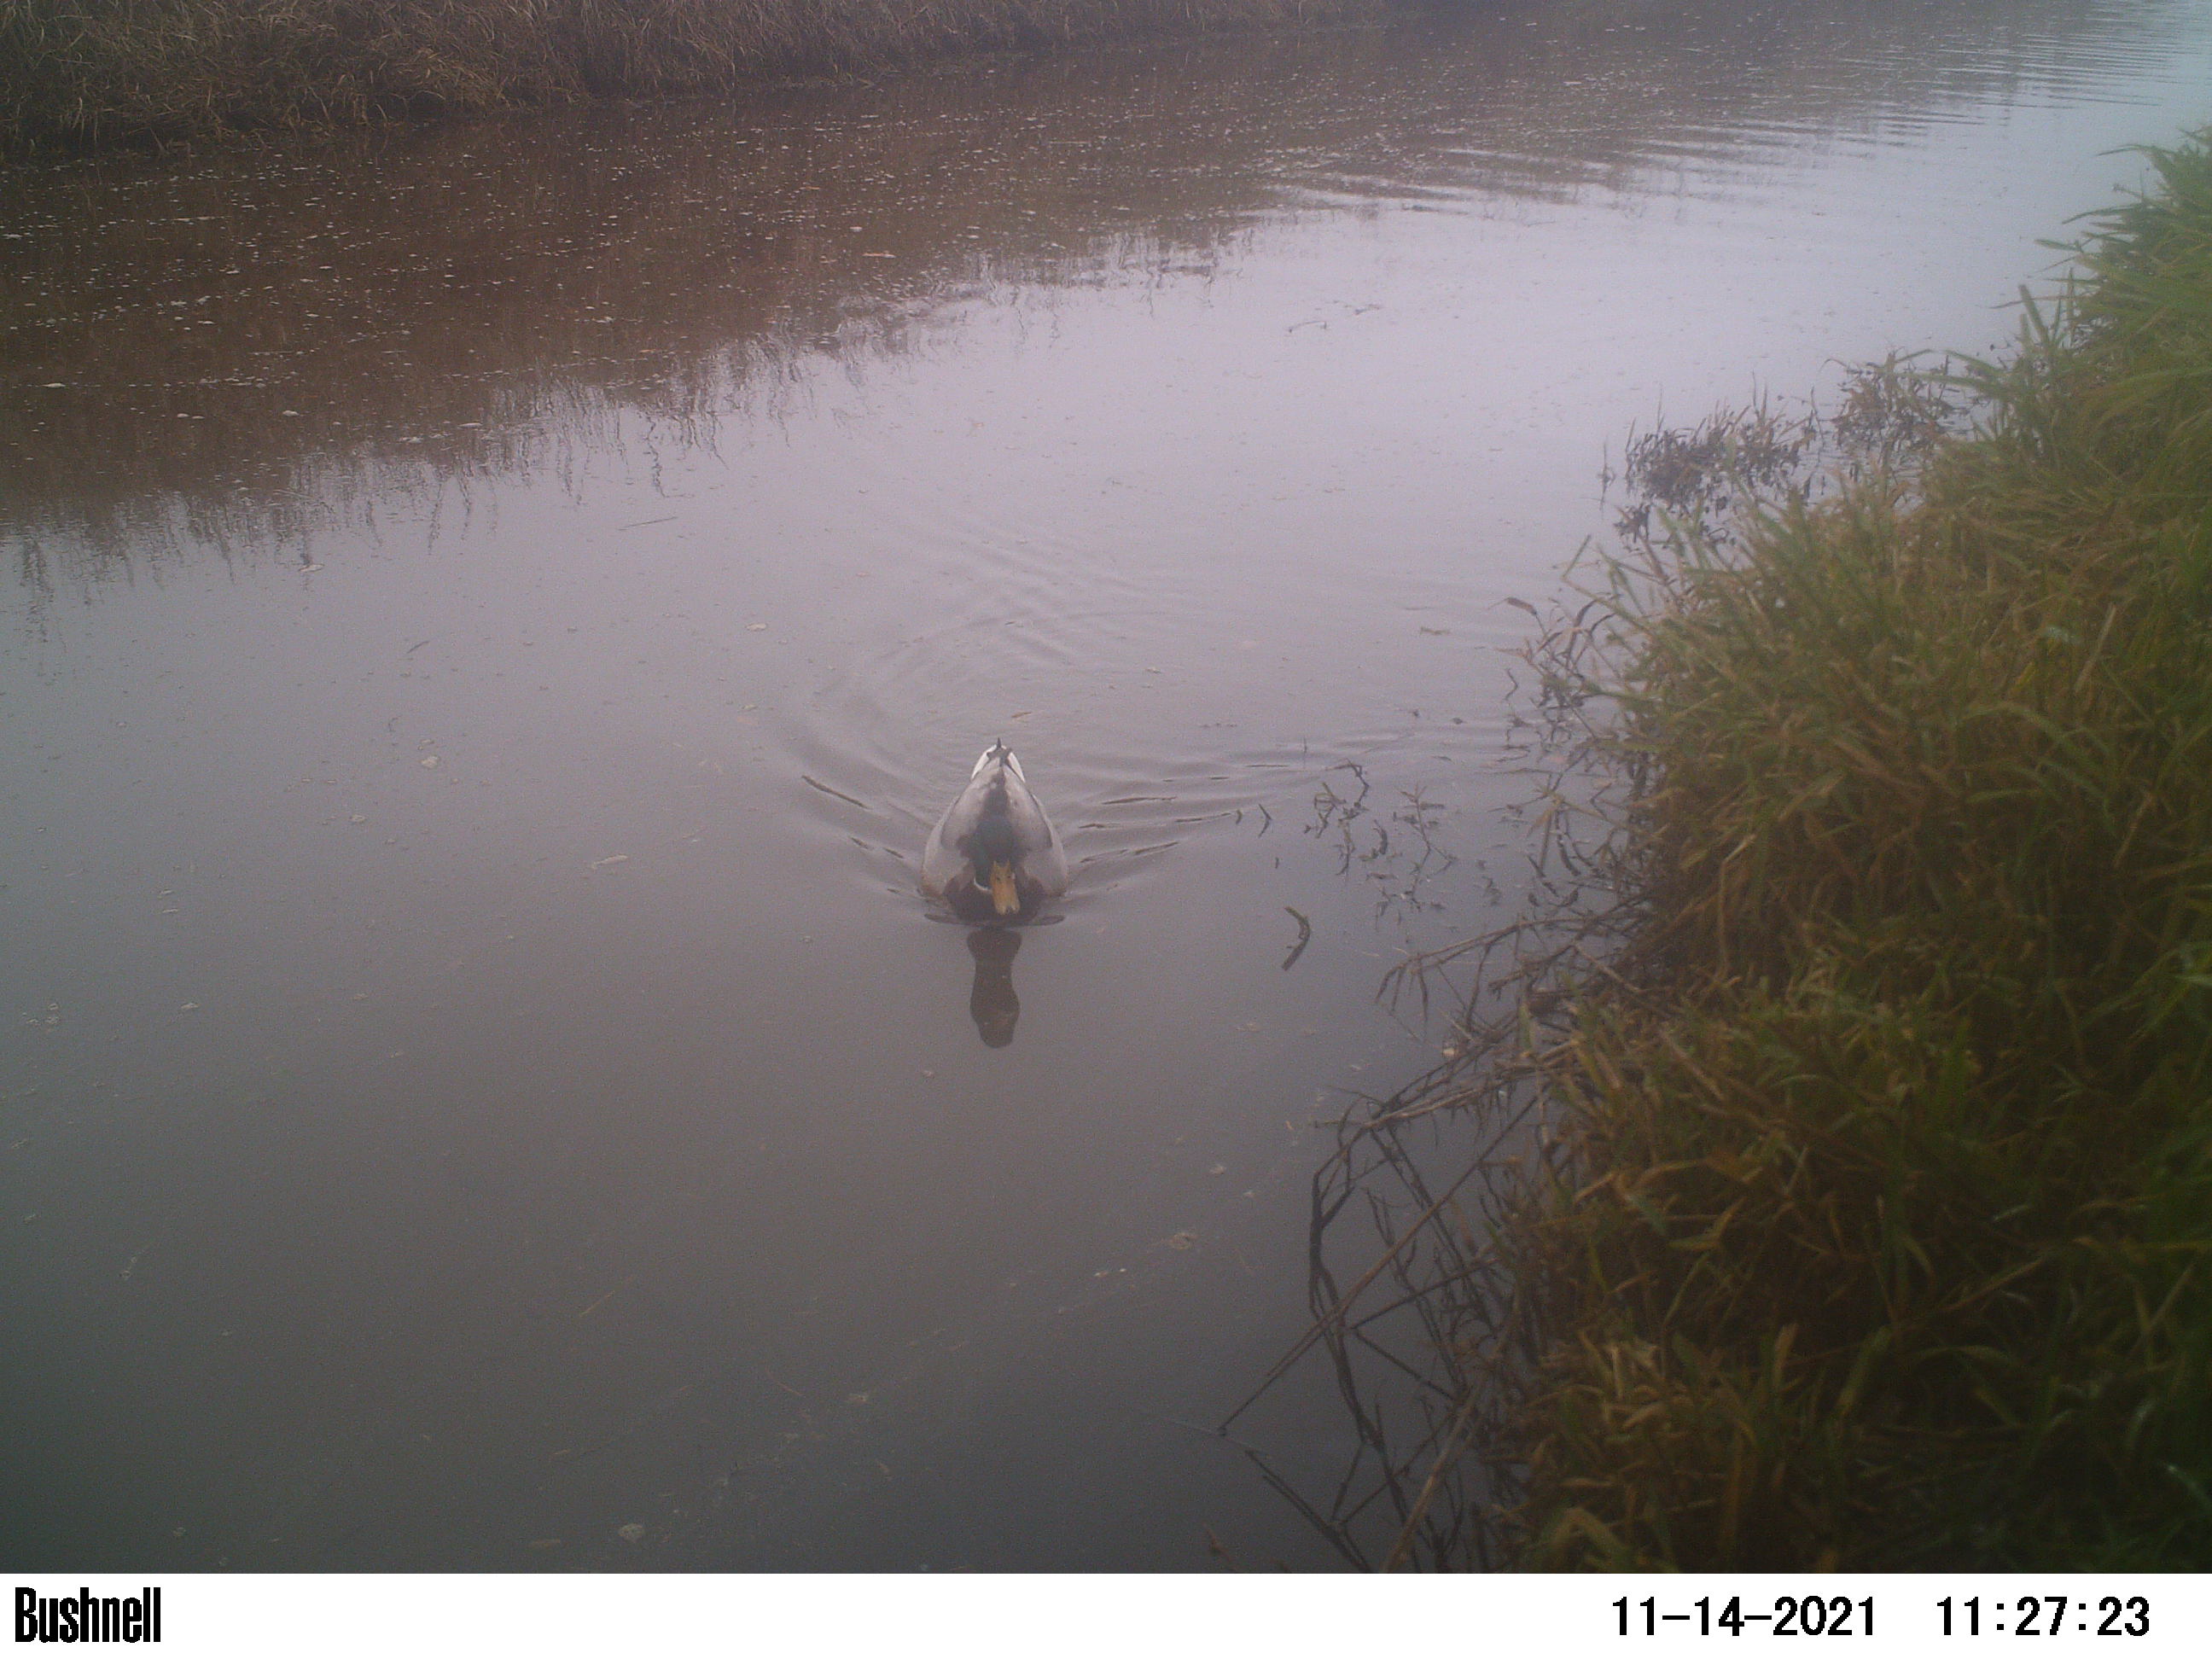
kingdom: Animalia
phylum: Chordata
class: Aves
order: Anseriformes
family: Anatidae
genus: Anas
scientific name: Anas
